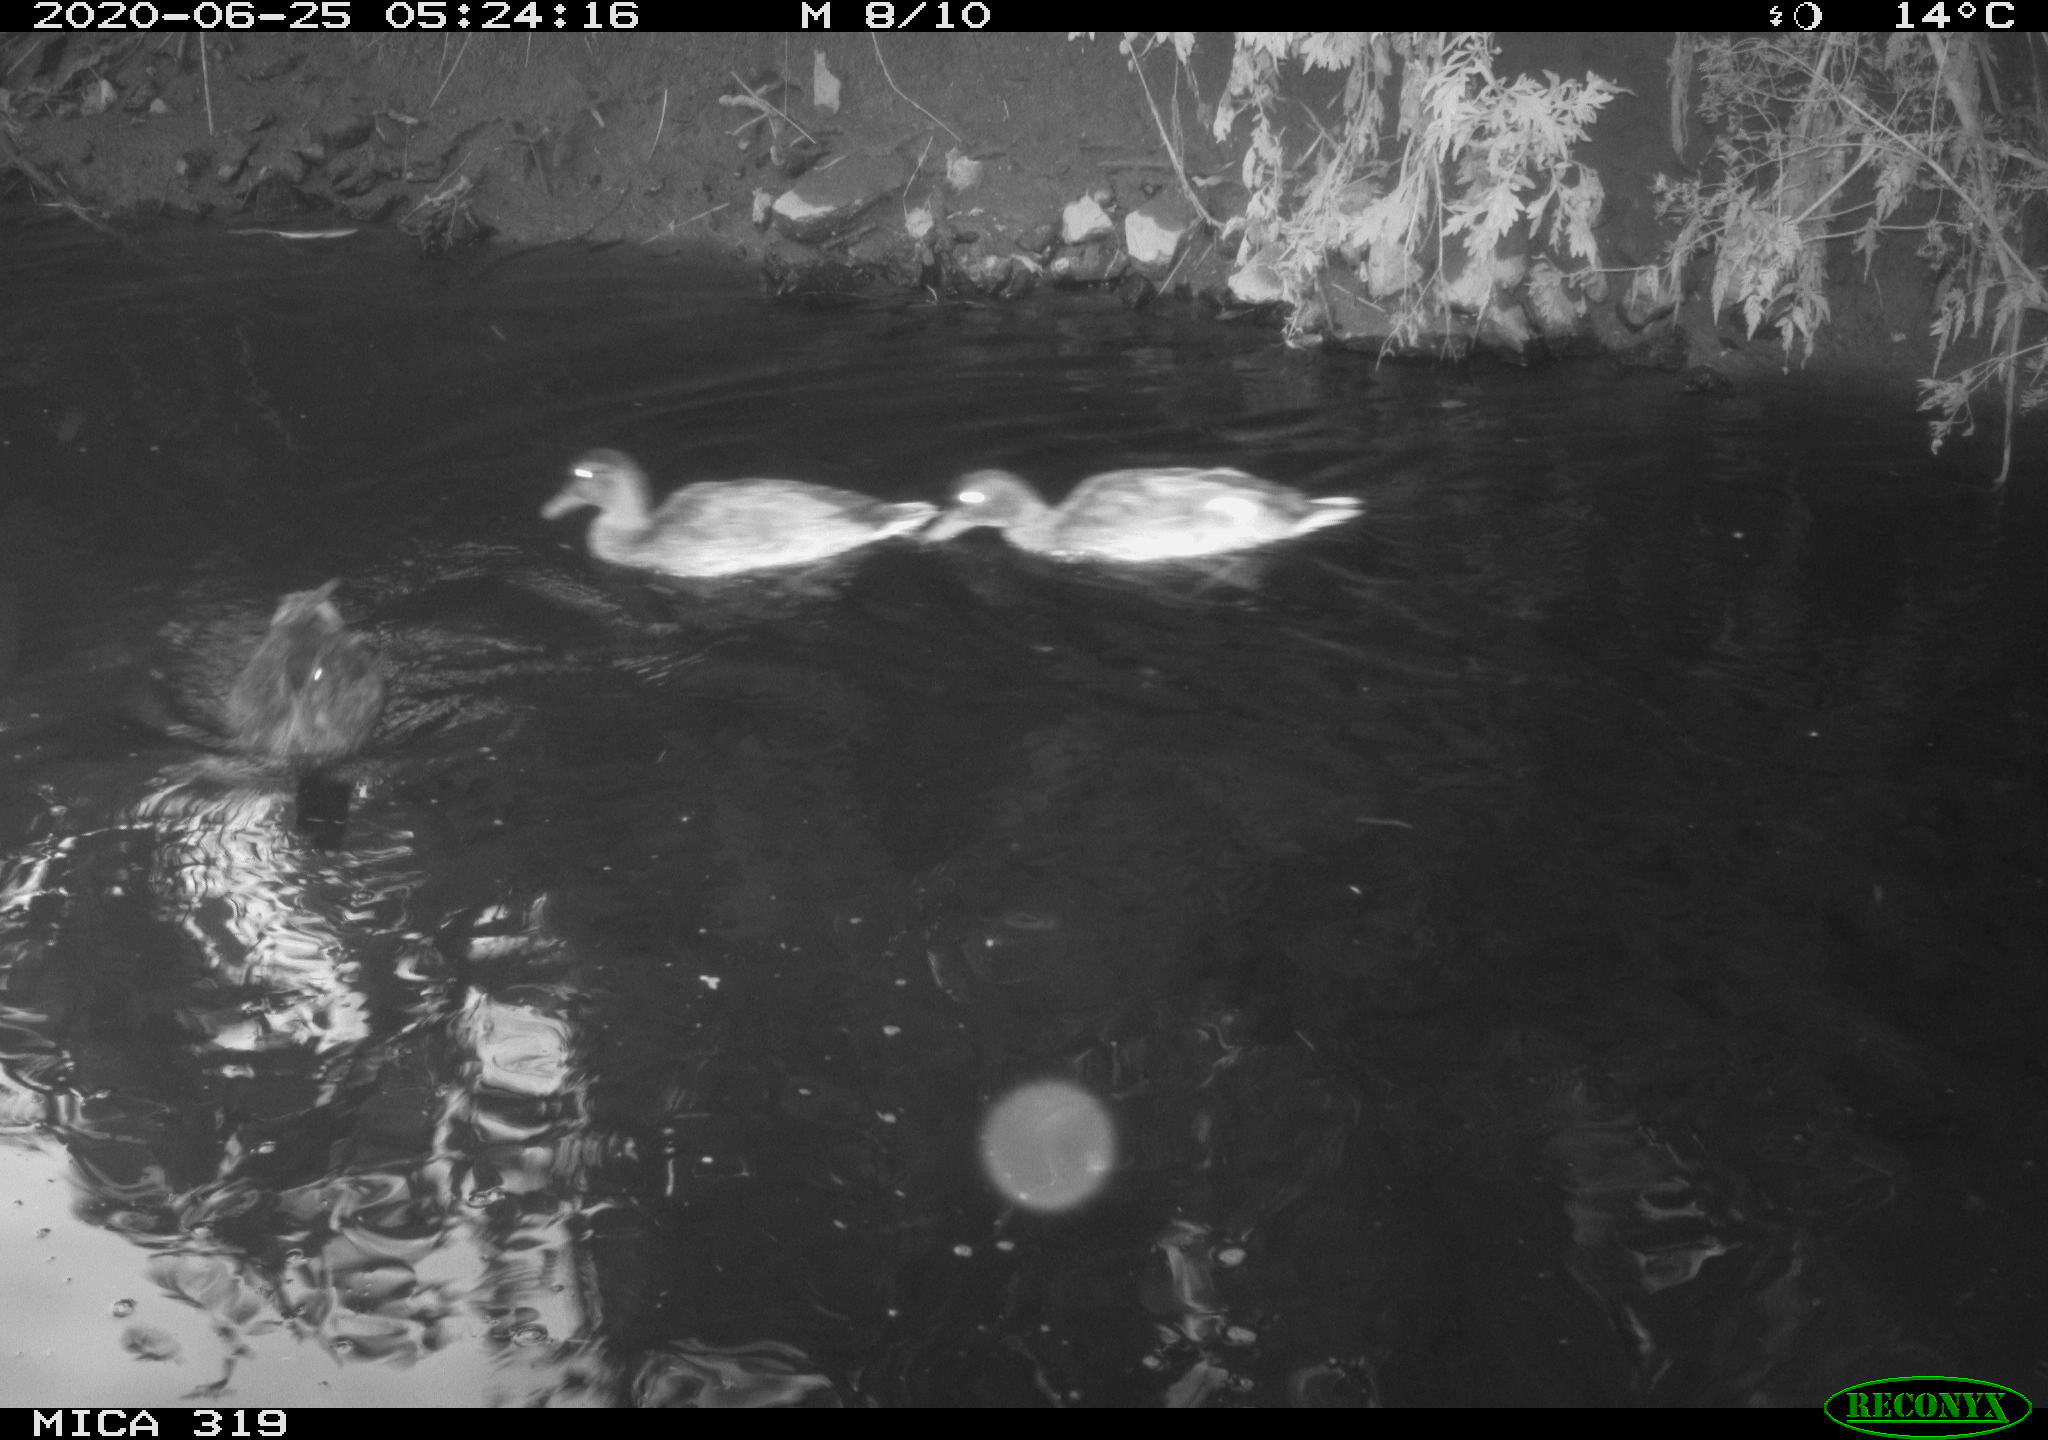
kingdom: Animalia
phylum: Chordata
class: Aves
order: Anseriformes
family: Anatidae
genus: Anas
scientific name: Anas platyrhynchos
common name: Mallard
